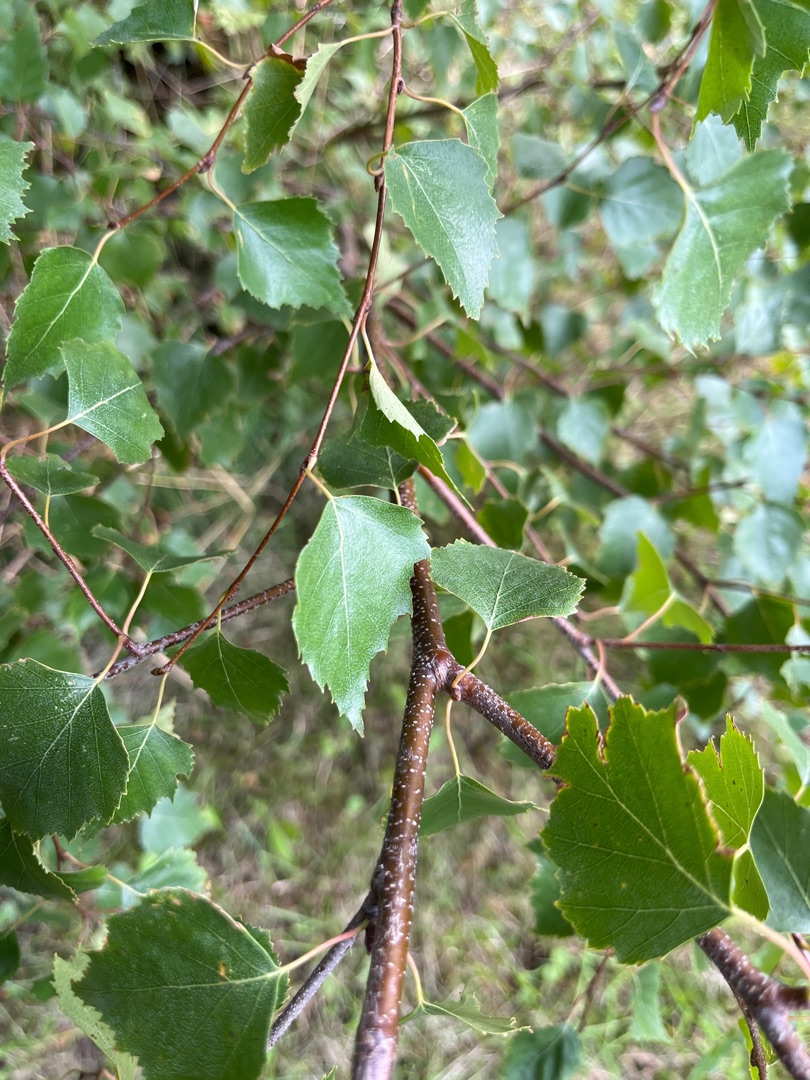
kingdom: Plantae
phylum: Tracheophyta
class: Magnoliopsida
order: Fagales
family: Betulaceae
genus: Betula
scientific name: Betula pendula
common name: Vorte-birk
